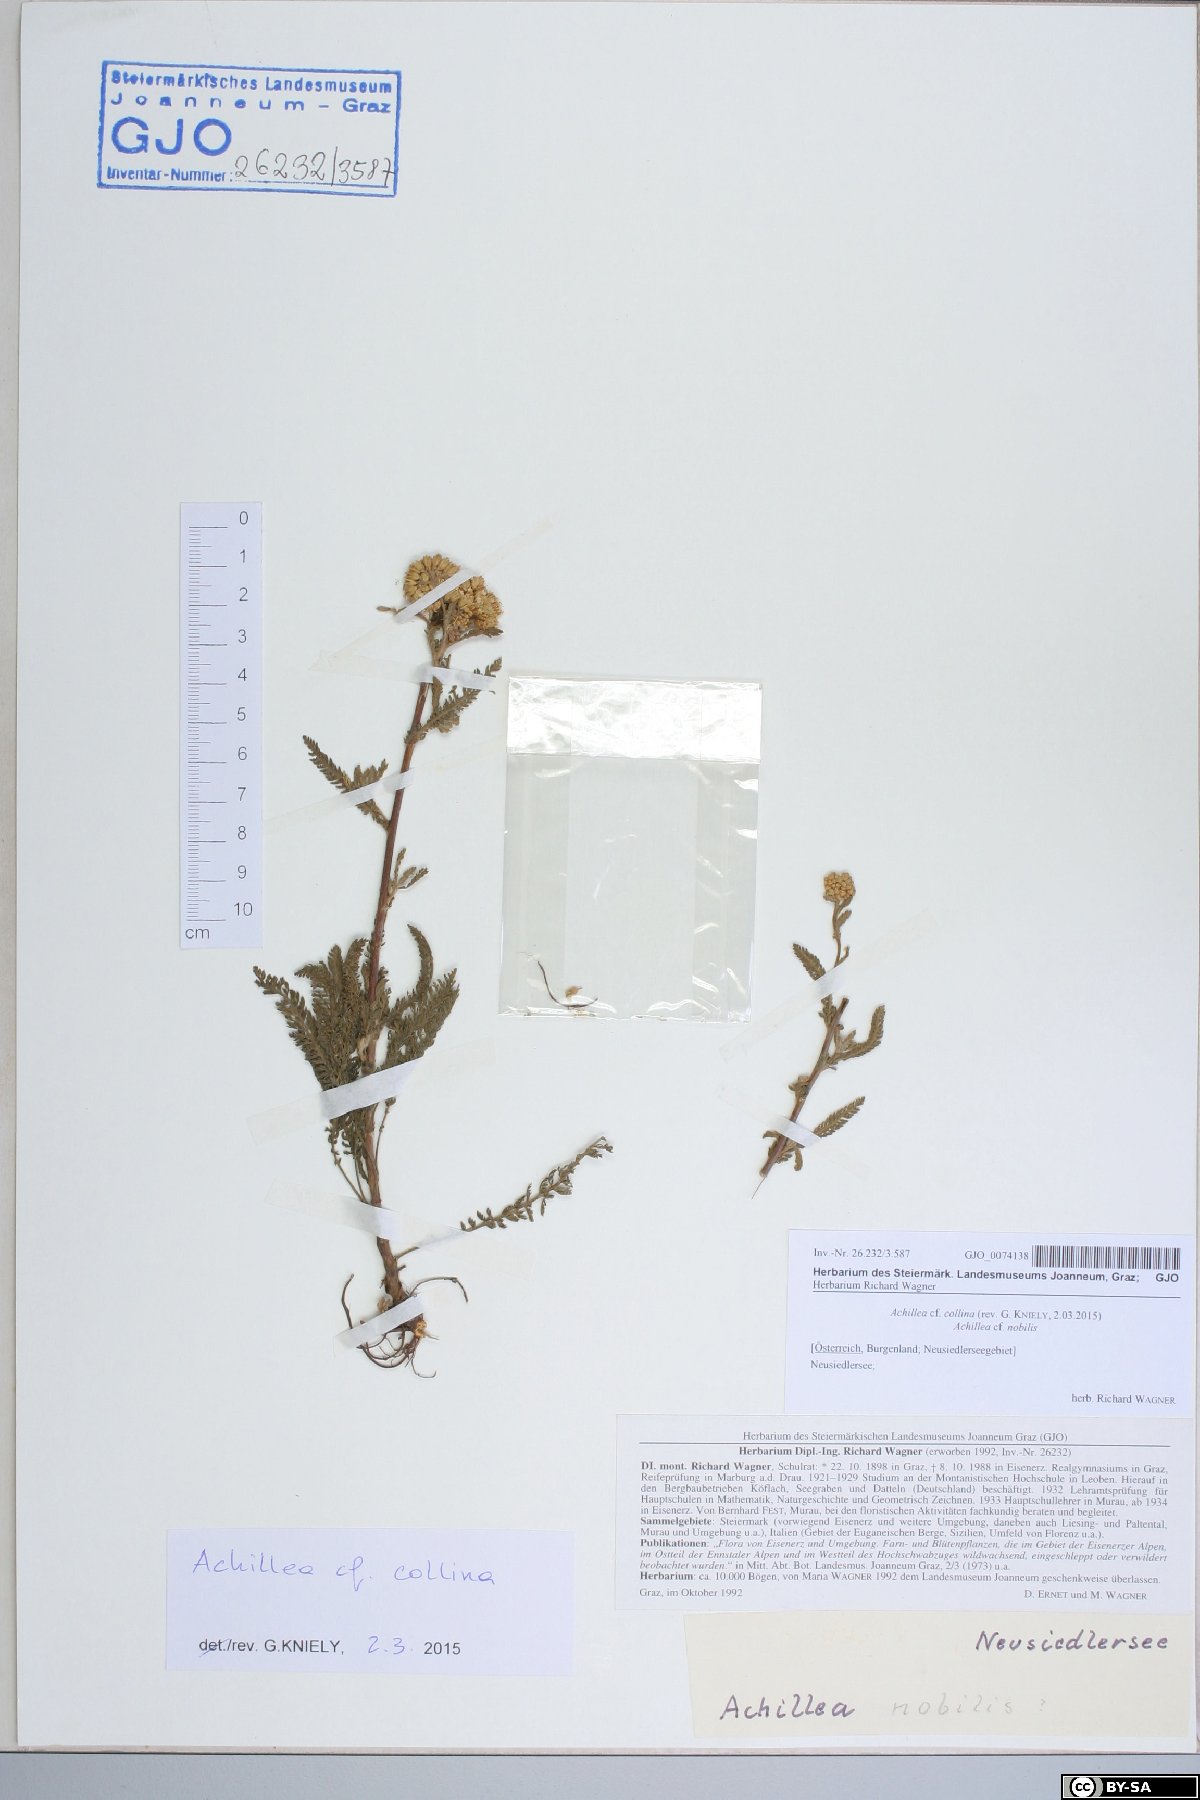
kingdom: Plantae
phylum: Tracheophyta
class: Magnoliopsida
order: Asterales
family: Asteraceae
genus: Achillea
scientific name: Achillea collina
